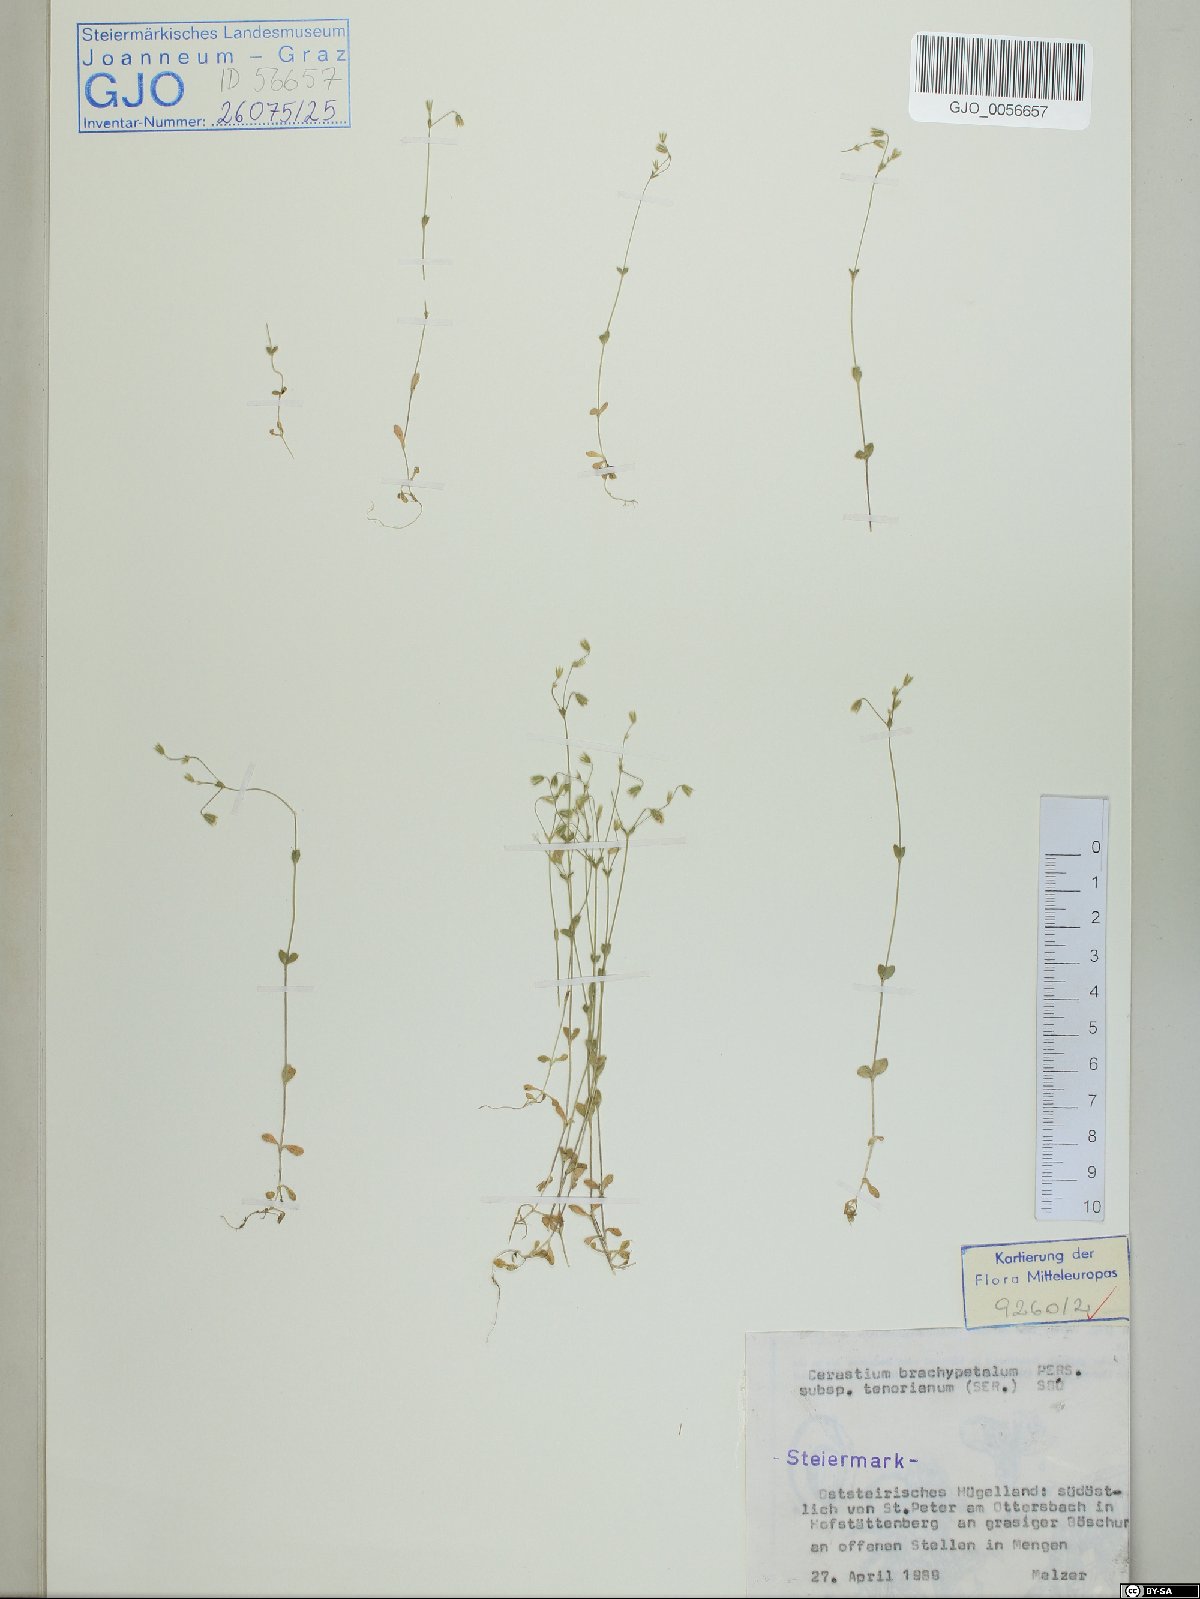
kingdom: Plantae
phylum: Tracheophyta
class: Magnoliopsida
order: Caryophyllales
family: Caryophyllaceae
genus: Cerastium
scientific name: Cerastium tenoreanum
